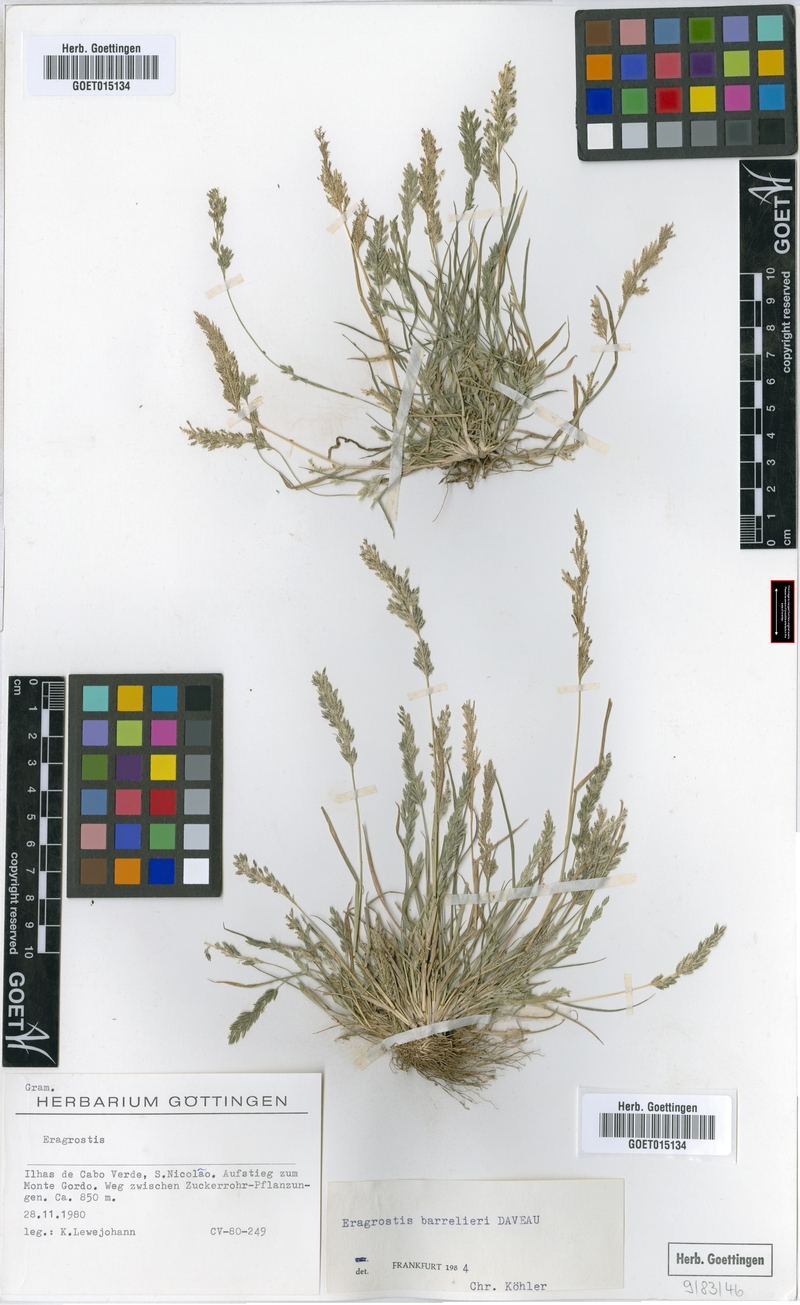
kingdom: Plantae
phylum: Tracheophyta
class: Liliopsida
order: Poales
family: Poaceae
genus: Eragrostis
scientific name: Eragrostis barrelieri
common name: Mediterranean lovegrass
